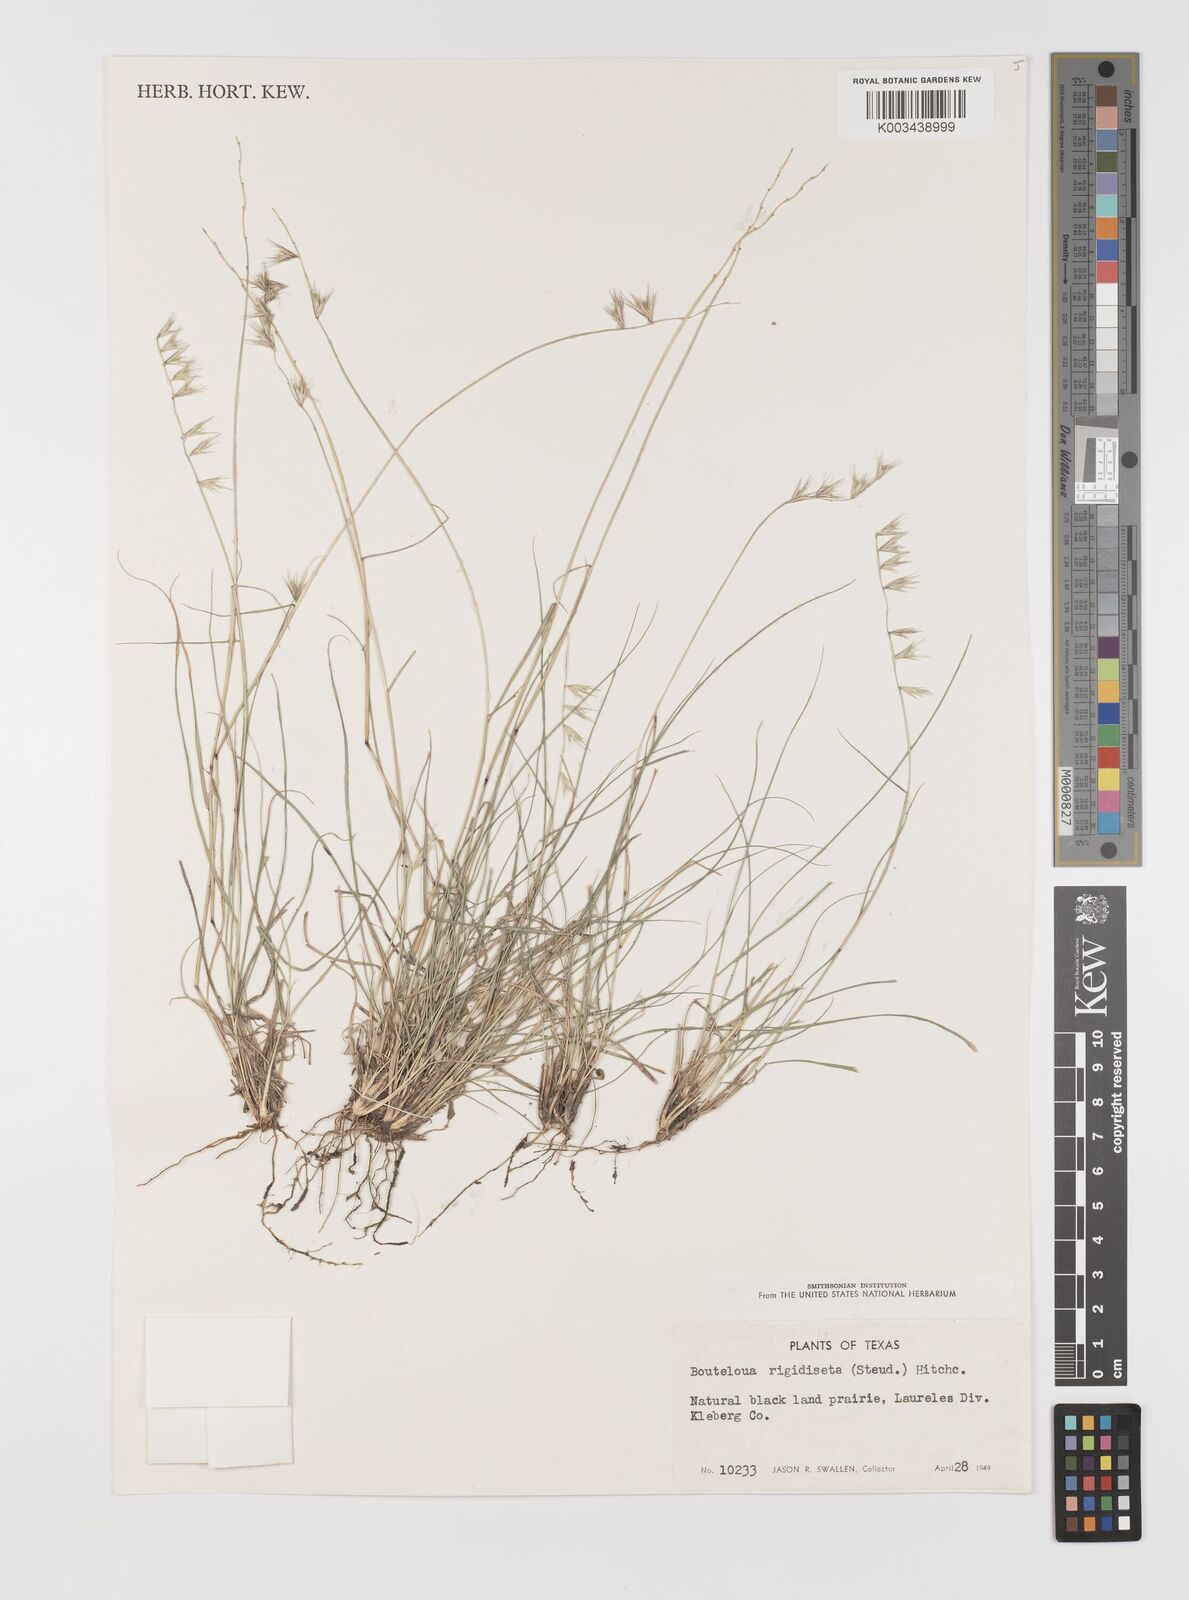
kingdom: Plantae
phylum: Tracheophyta
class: Liliopsida
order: Poales
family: Poaceae
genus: Bouteloua
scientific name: Bouteloua rigidiseta
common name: Texas grama
